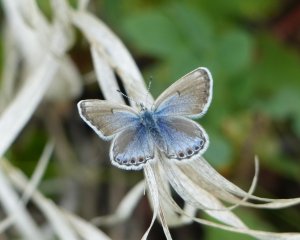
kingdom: Animalia
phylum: Arthropoda
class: Insecta
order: Lepidoptera
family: Lycaenidae
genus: Plebejus
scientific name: Plebejus saepiolus
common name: Greenish Blue
